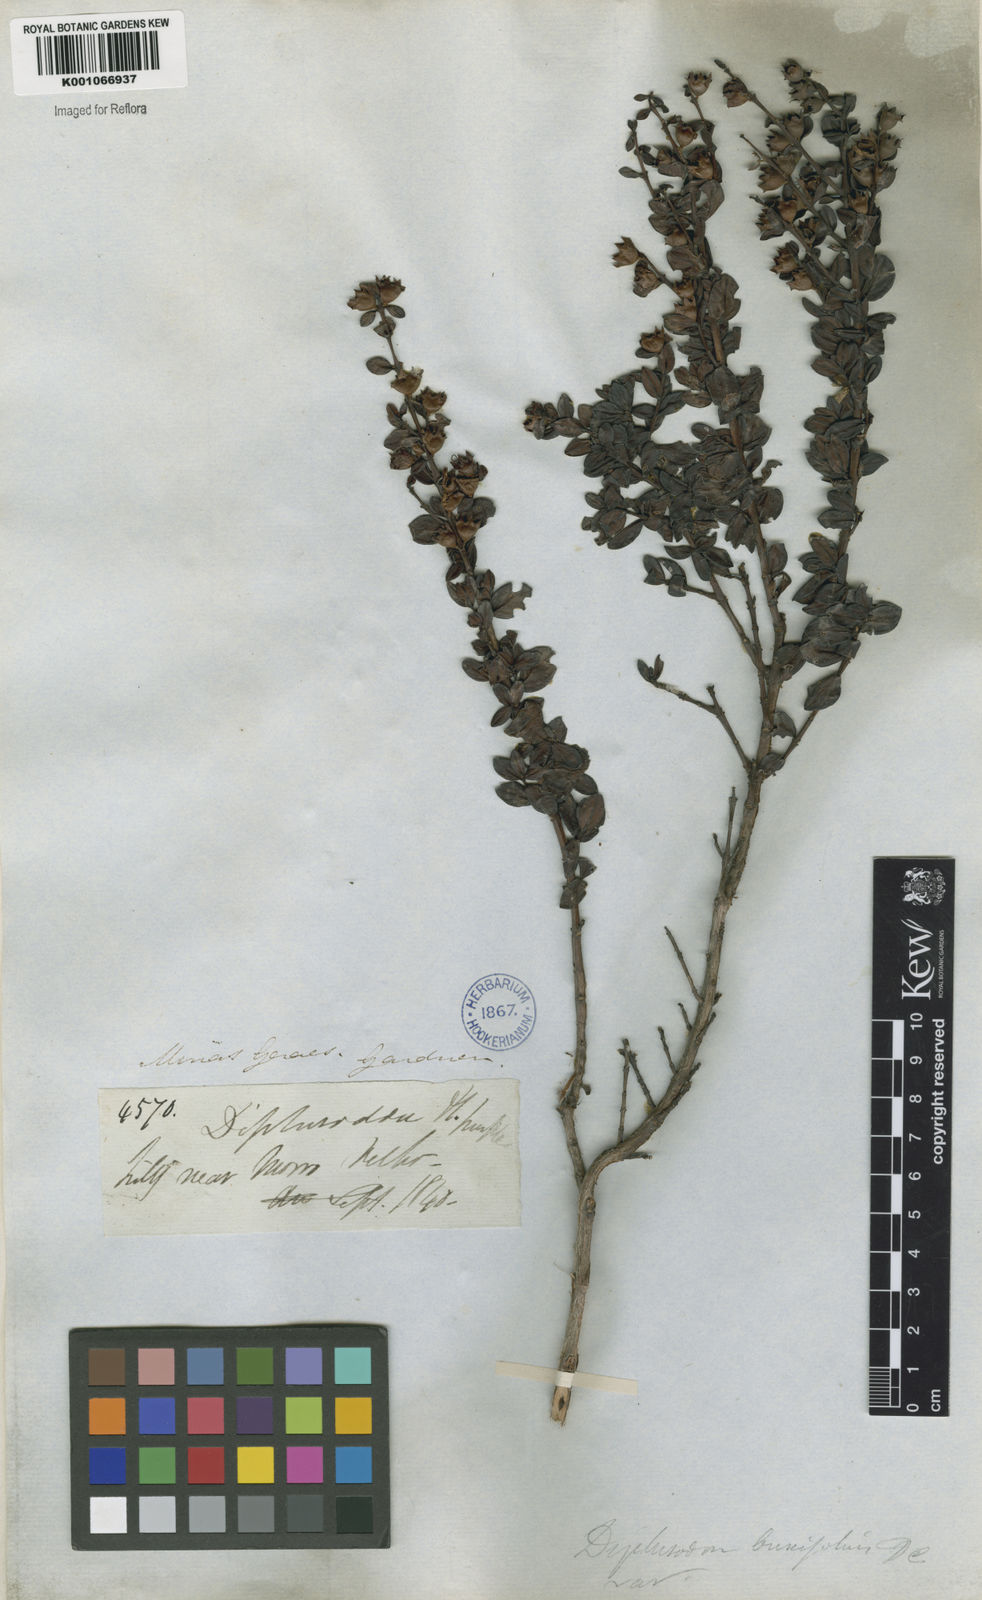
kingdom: Plantae
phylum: Tracheophyta
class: Magnoliopsida
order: Myrtales
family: Lythraceae
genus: Diplusodon
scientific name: Diplusodon buxifolius
